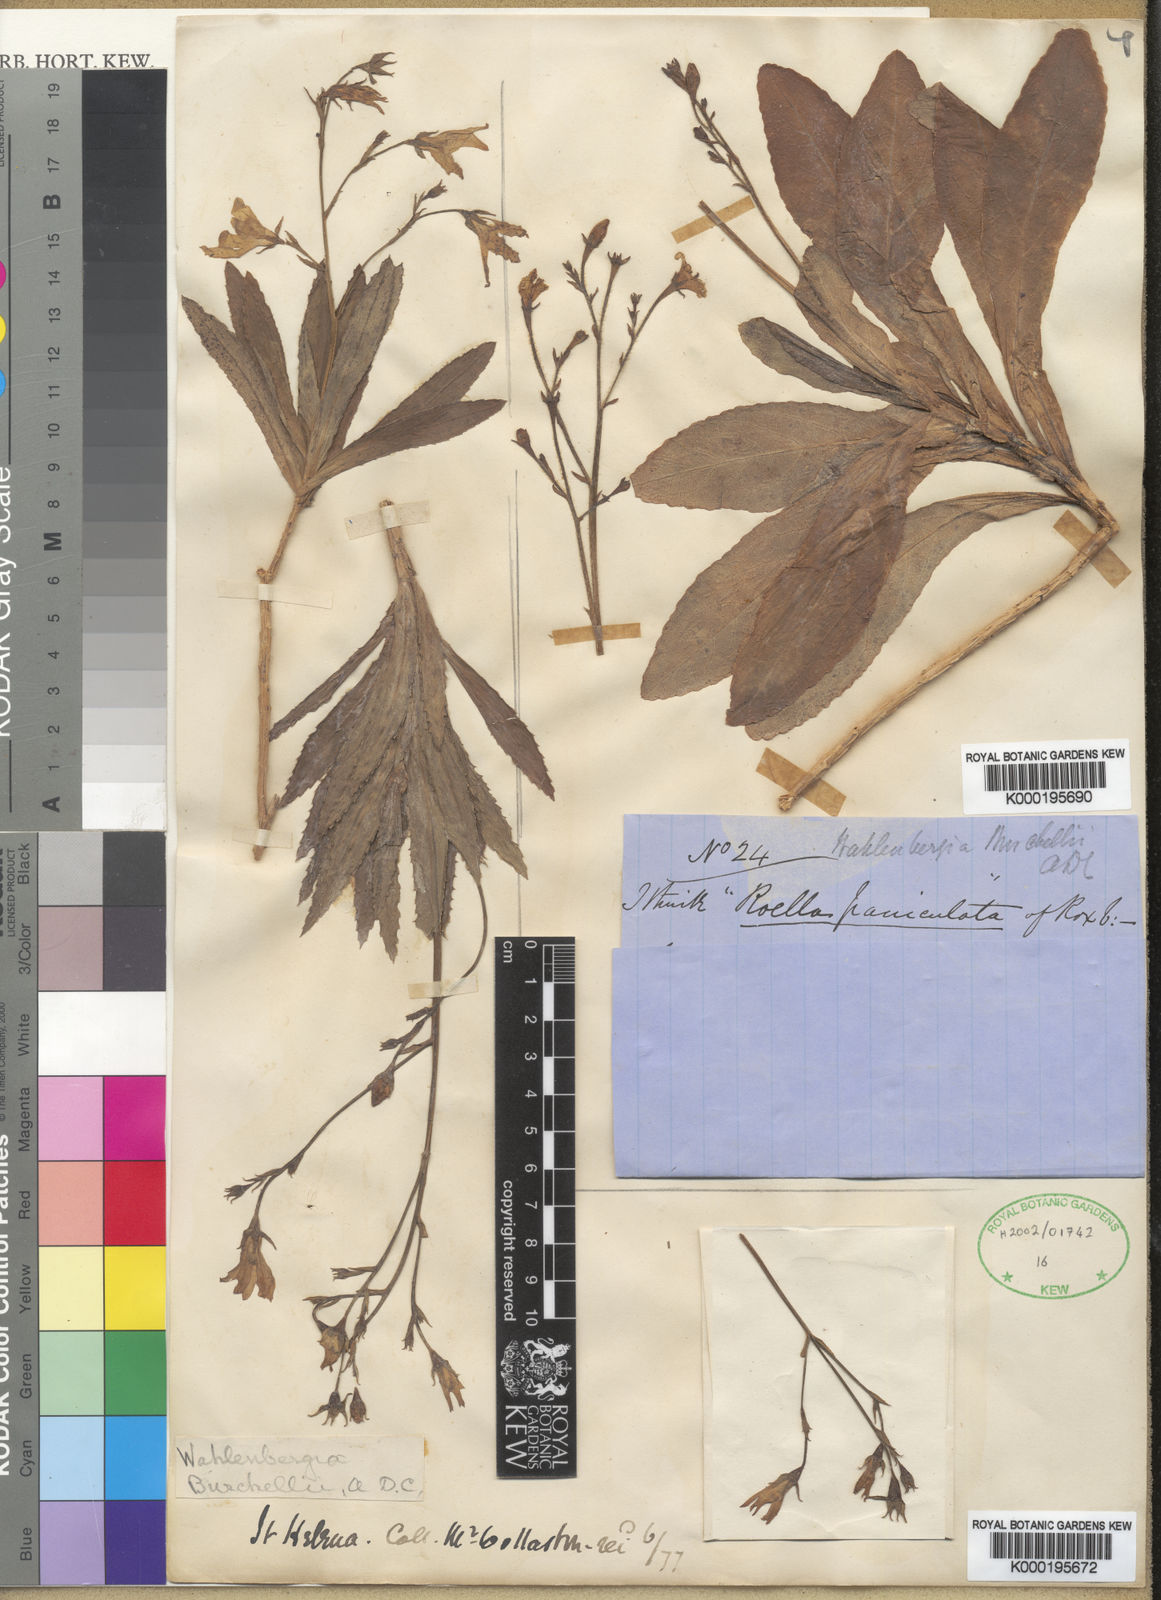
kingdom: Plantae
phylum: Tracheophyta
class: Magnoliopsida
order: Asterales
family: Campanulaceae
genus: Wahlenbergia
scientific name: Wahlenbergia roxburghii
